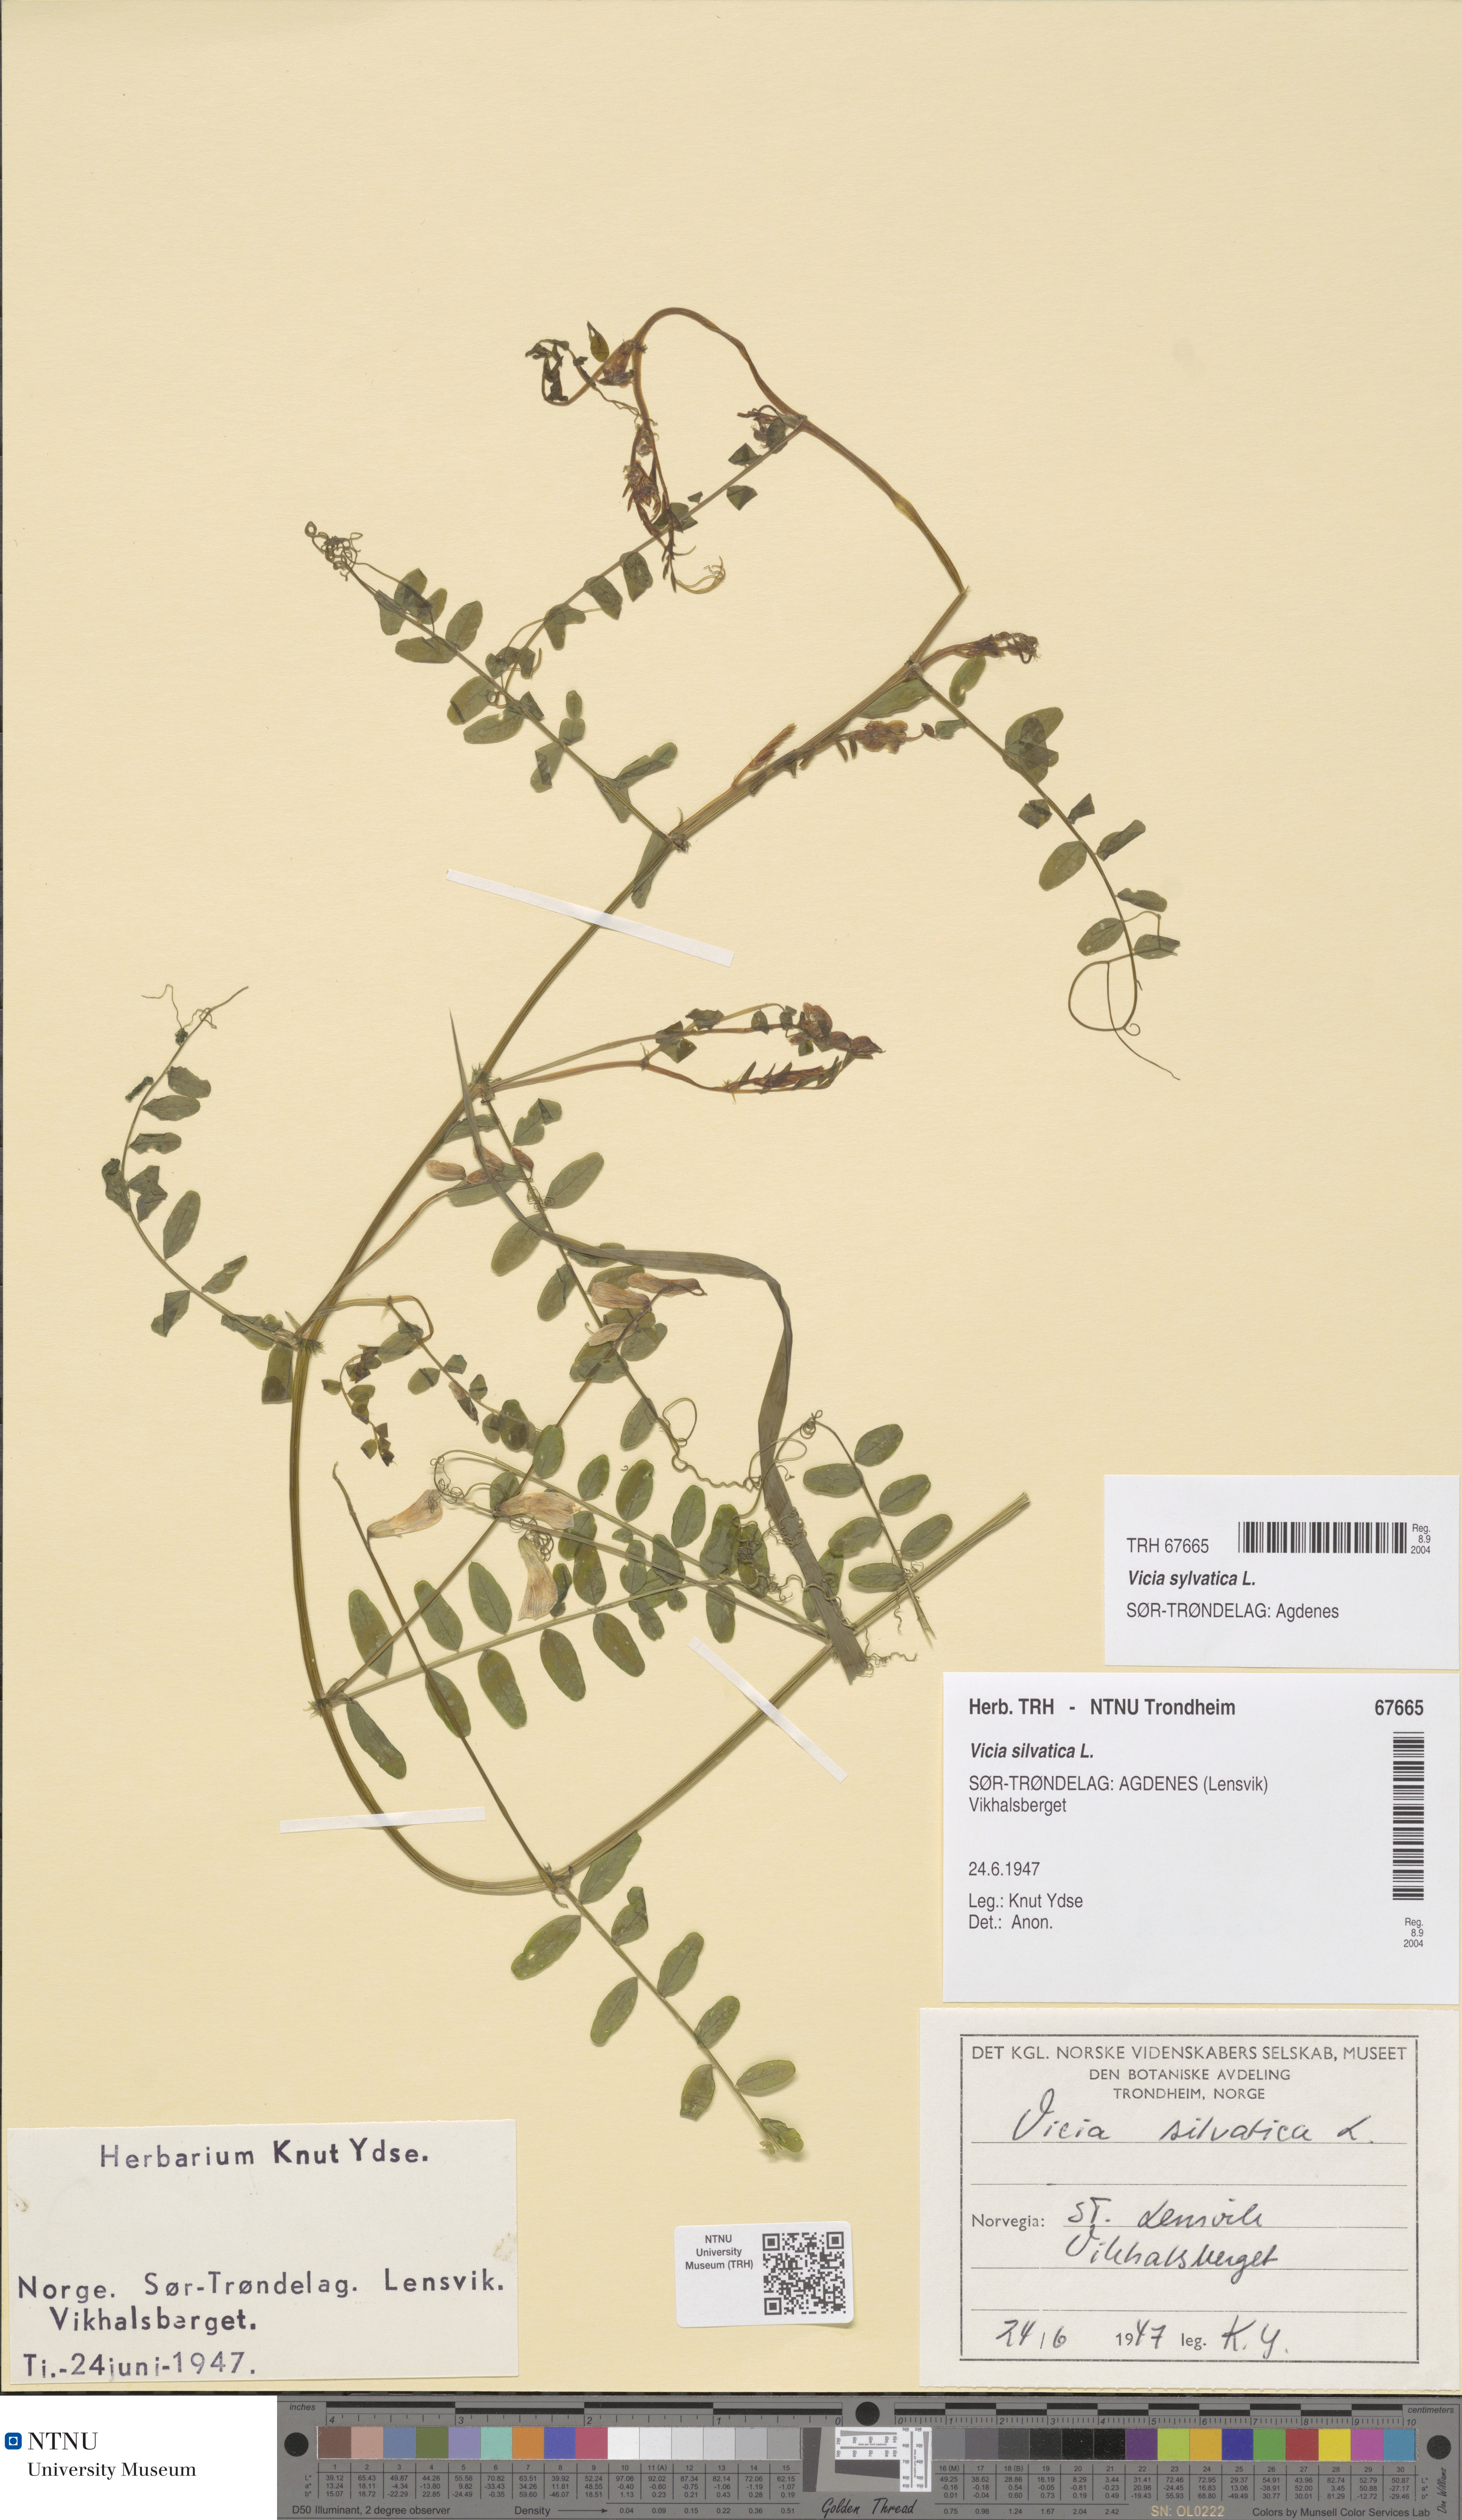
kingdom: Plantae
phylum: Tracheophyta
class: Magnoliopsida
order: Fabales
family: Fabaceae
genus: Vicia
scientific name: Vicia sylvatica
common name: Wood vetch
